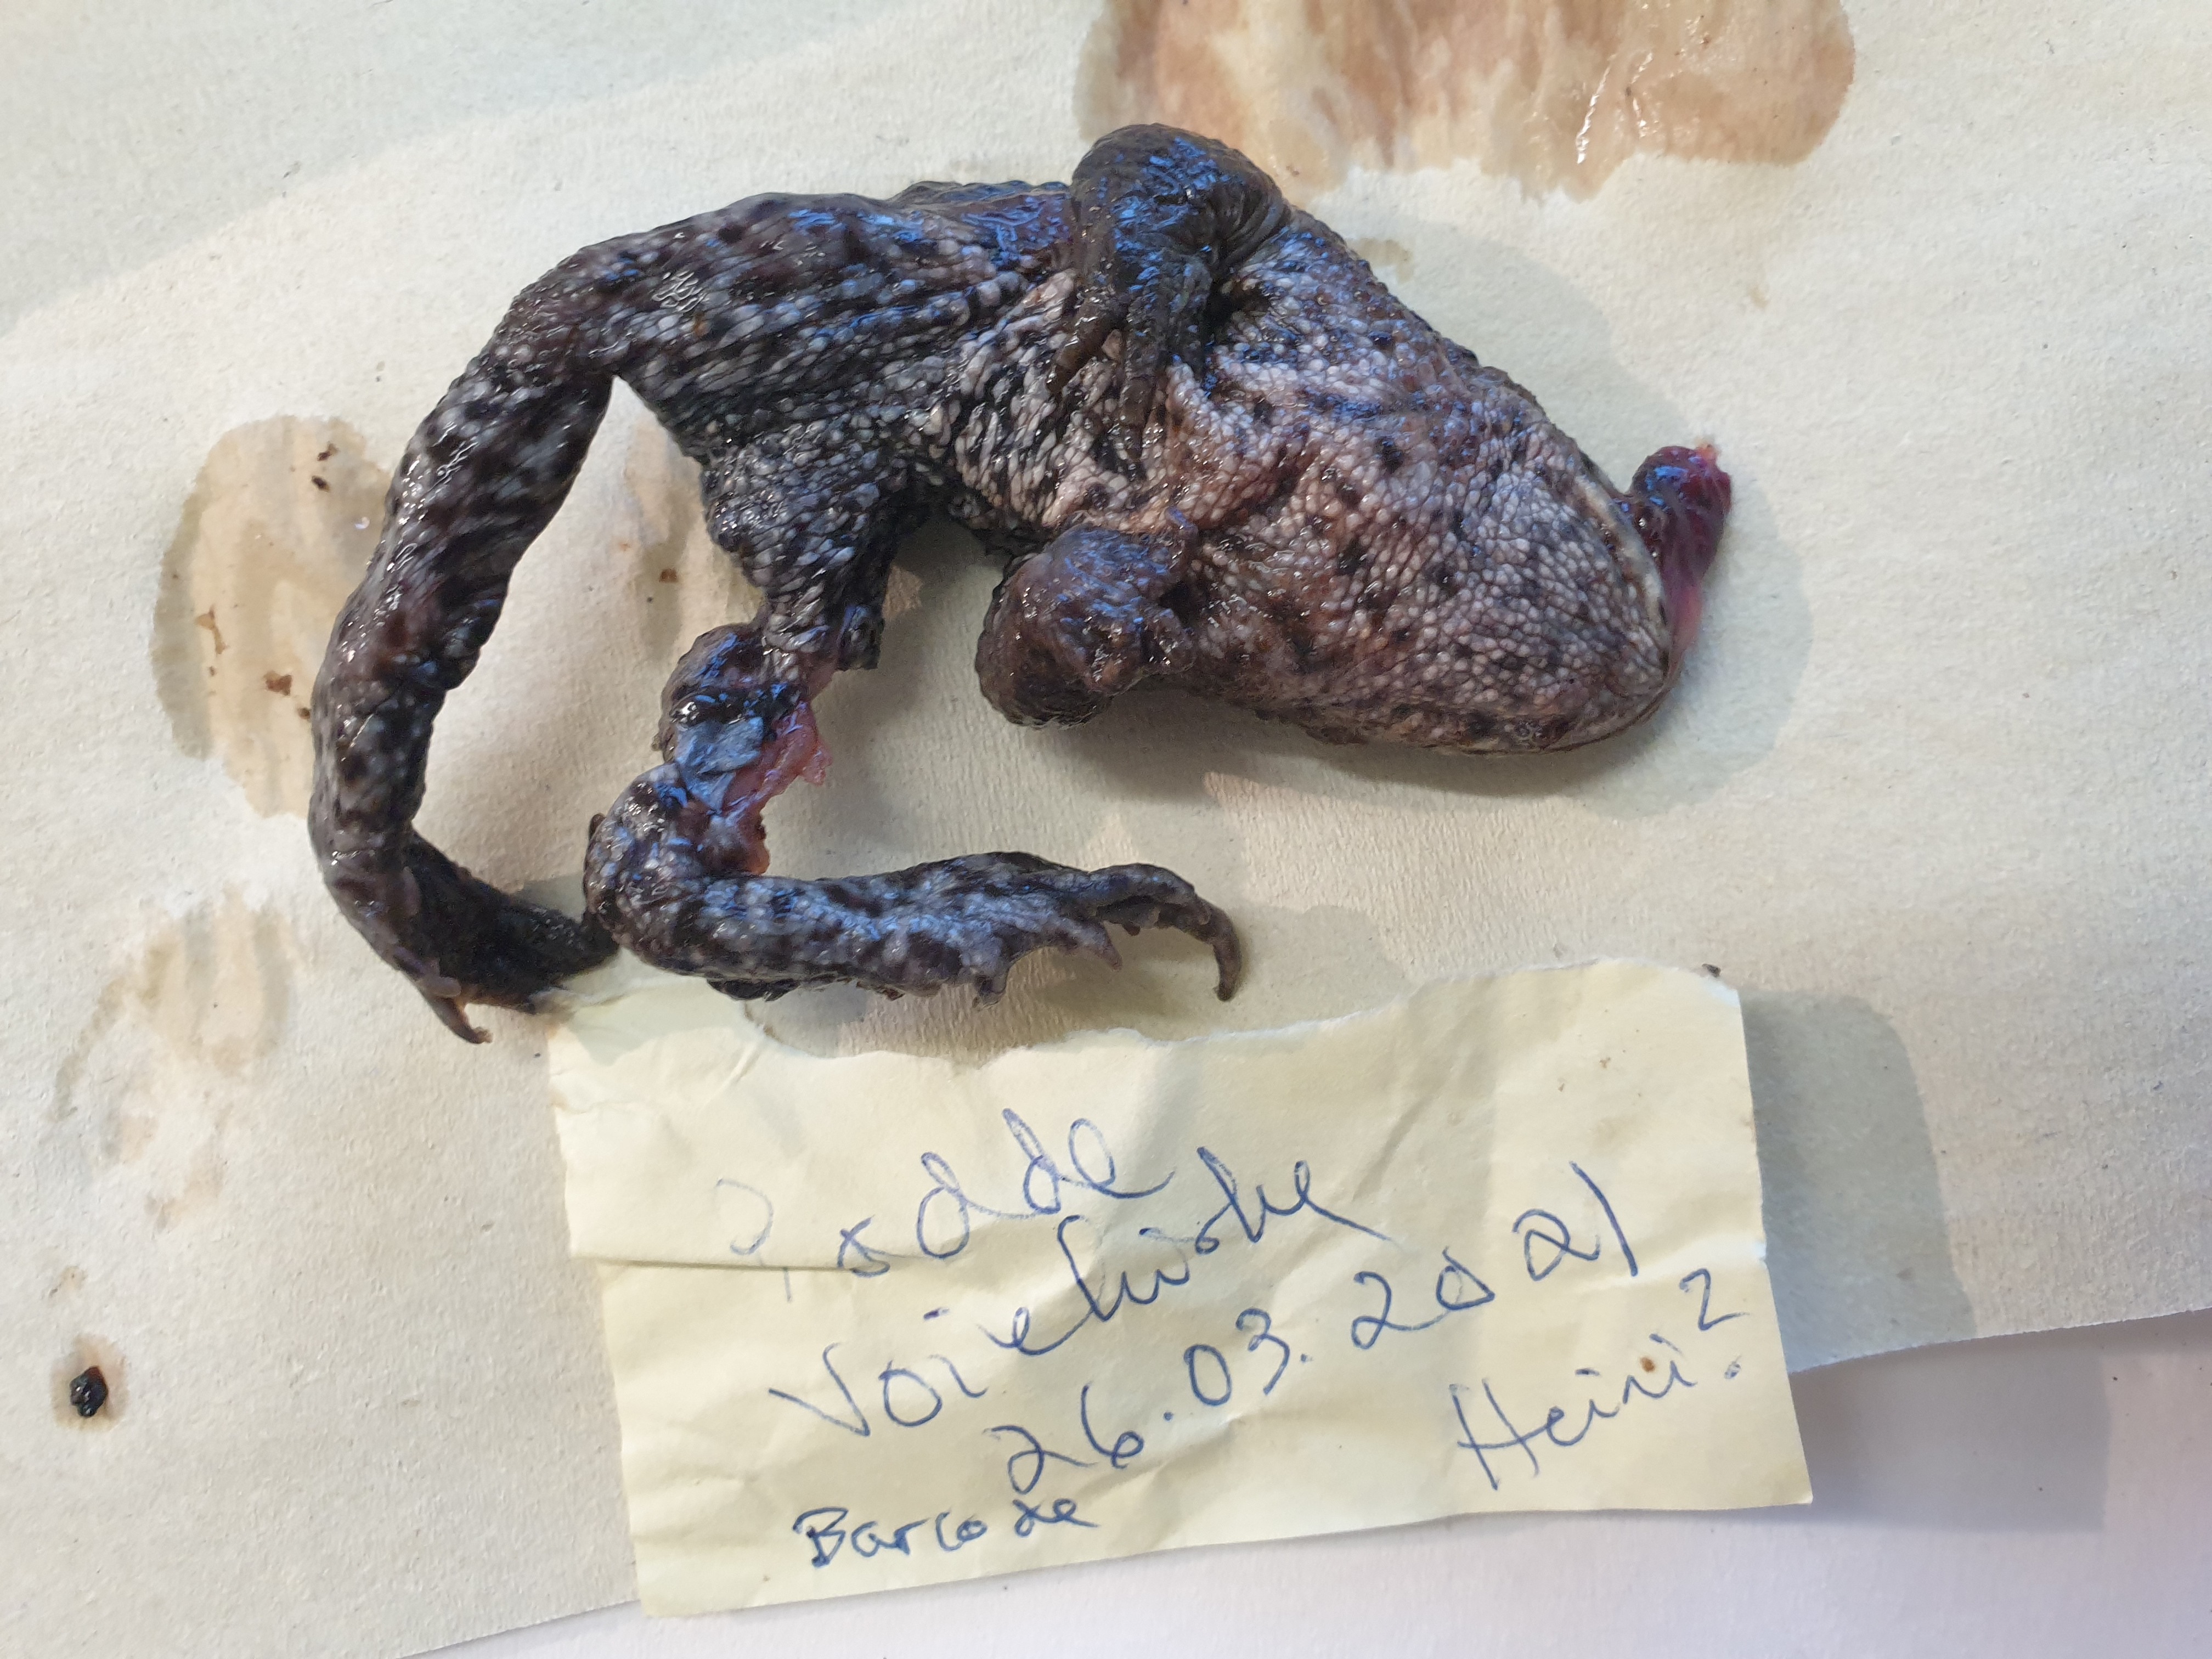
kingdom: Animalia
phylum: Chordata
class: Amphibia
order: Anura
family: Bufonidae
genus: Bufo
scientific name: Bufo bufo
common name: Common toad
